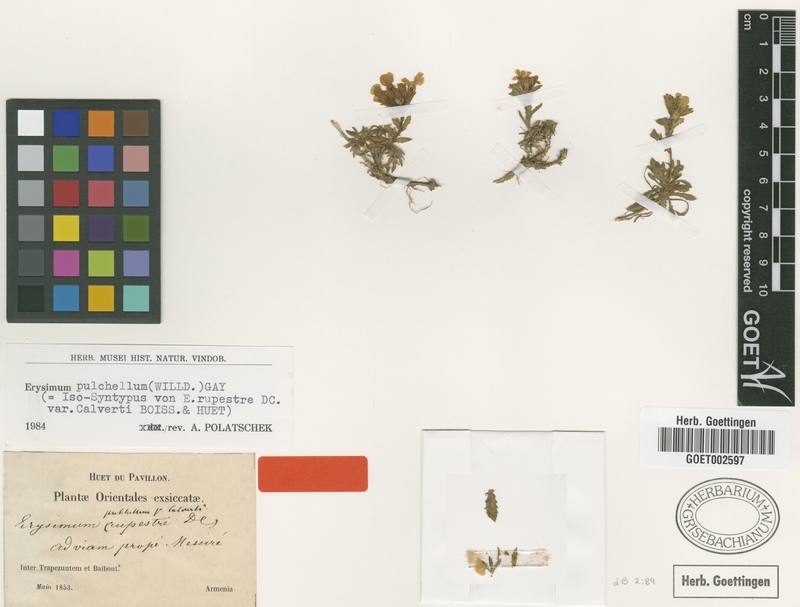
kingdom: Plantae
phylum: Tracheophyta
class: Magnoliopsida
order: Brassicales
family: Brassicaceae
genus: Erysimum
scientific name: Erysimum pulchellum
